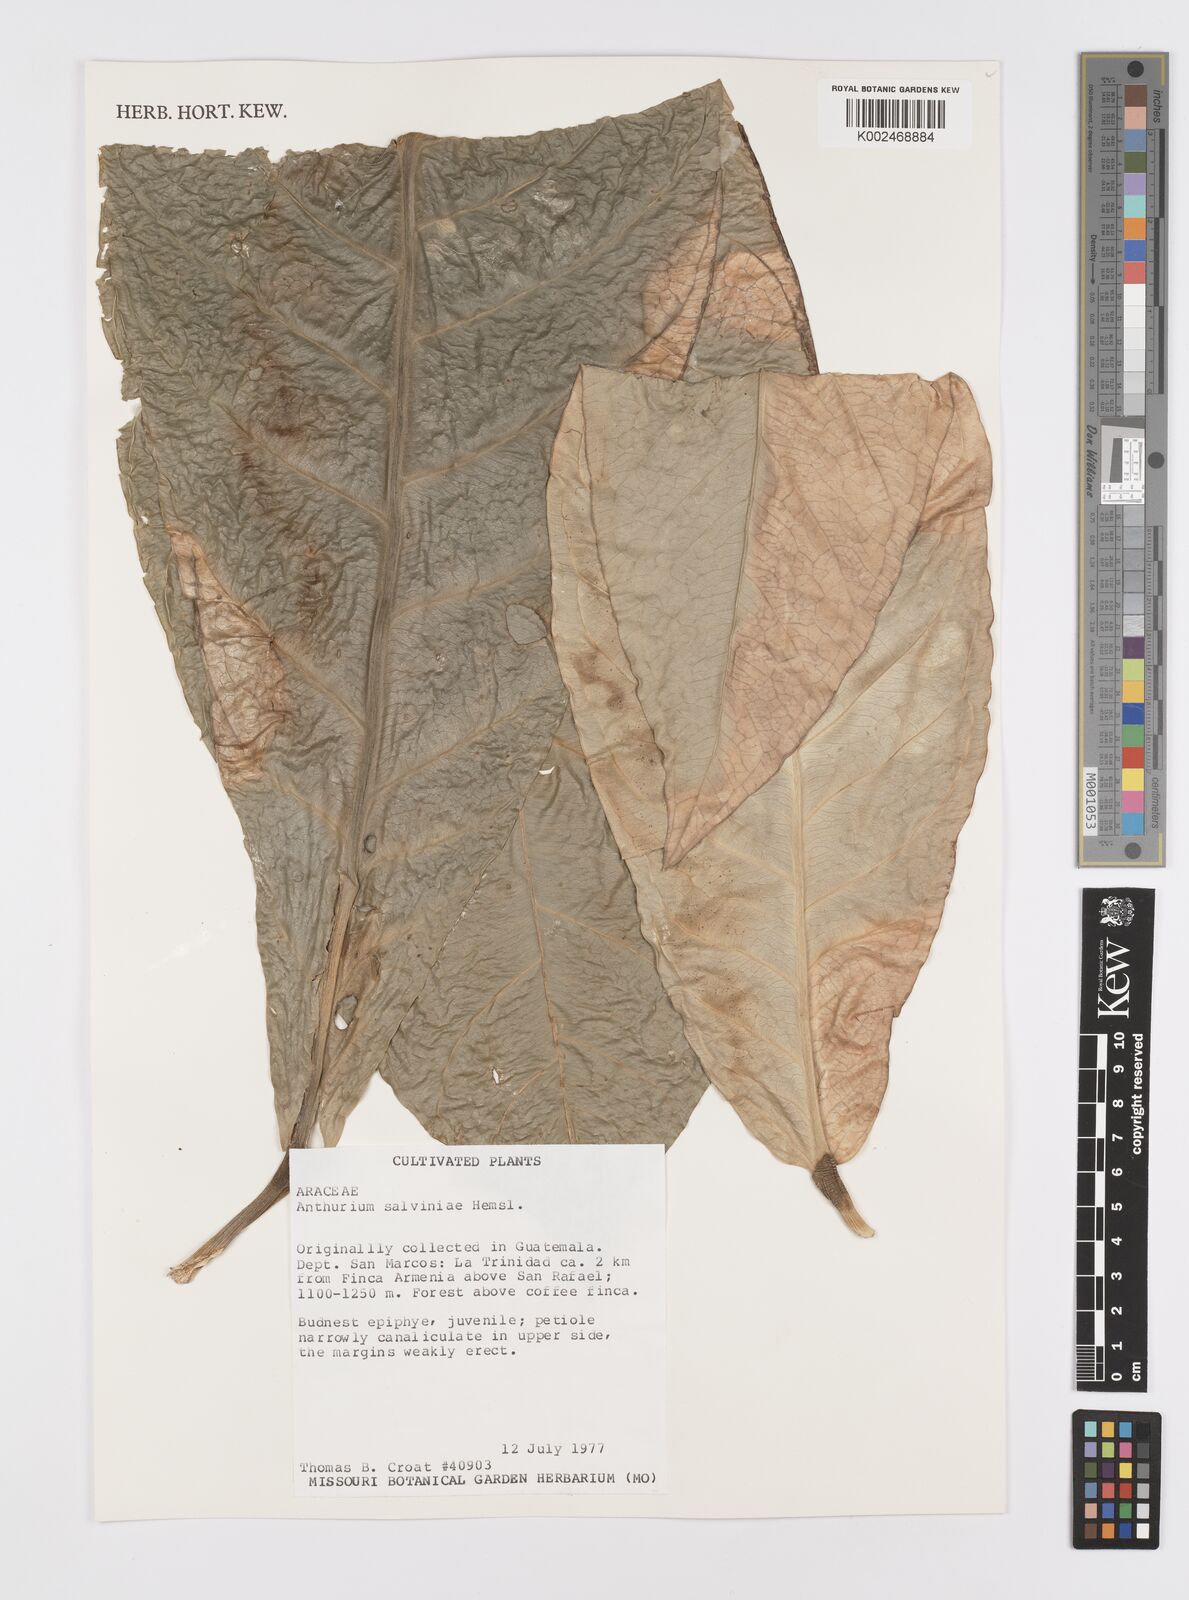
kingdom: Plantae
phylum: Tracheophyta
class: Liliopsida
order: Alismatales
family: Araceae
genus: Anthurium
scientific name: Anthurium salvinii
